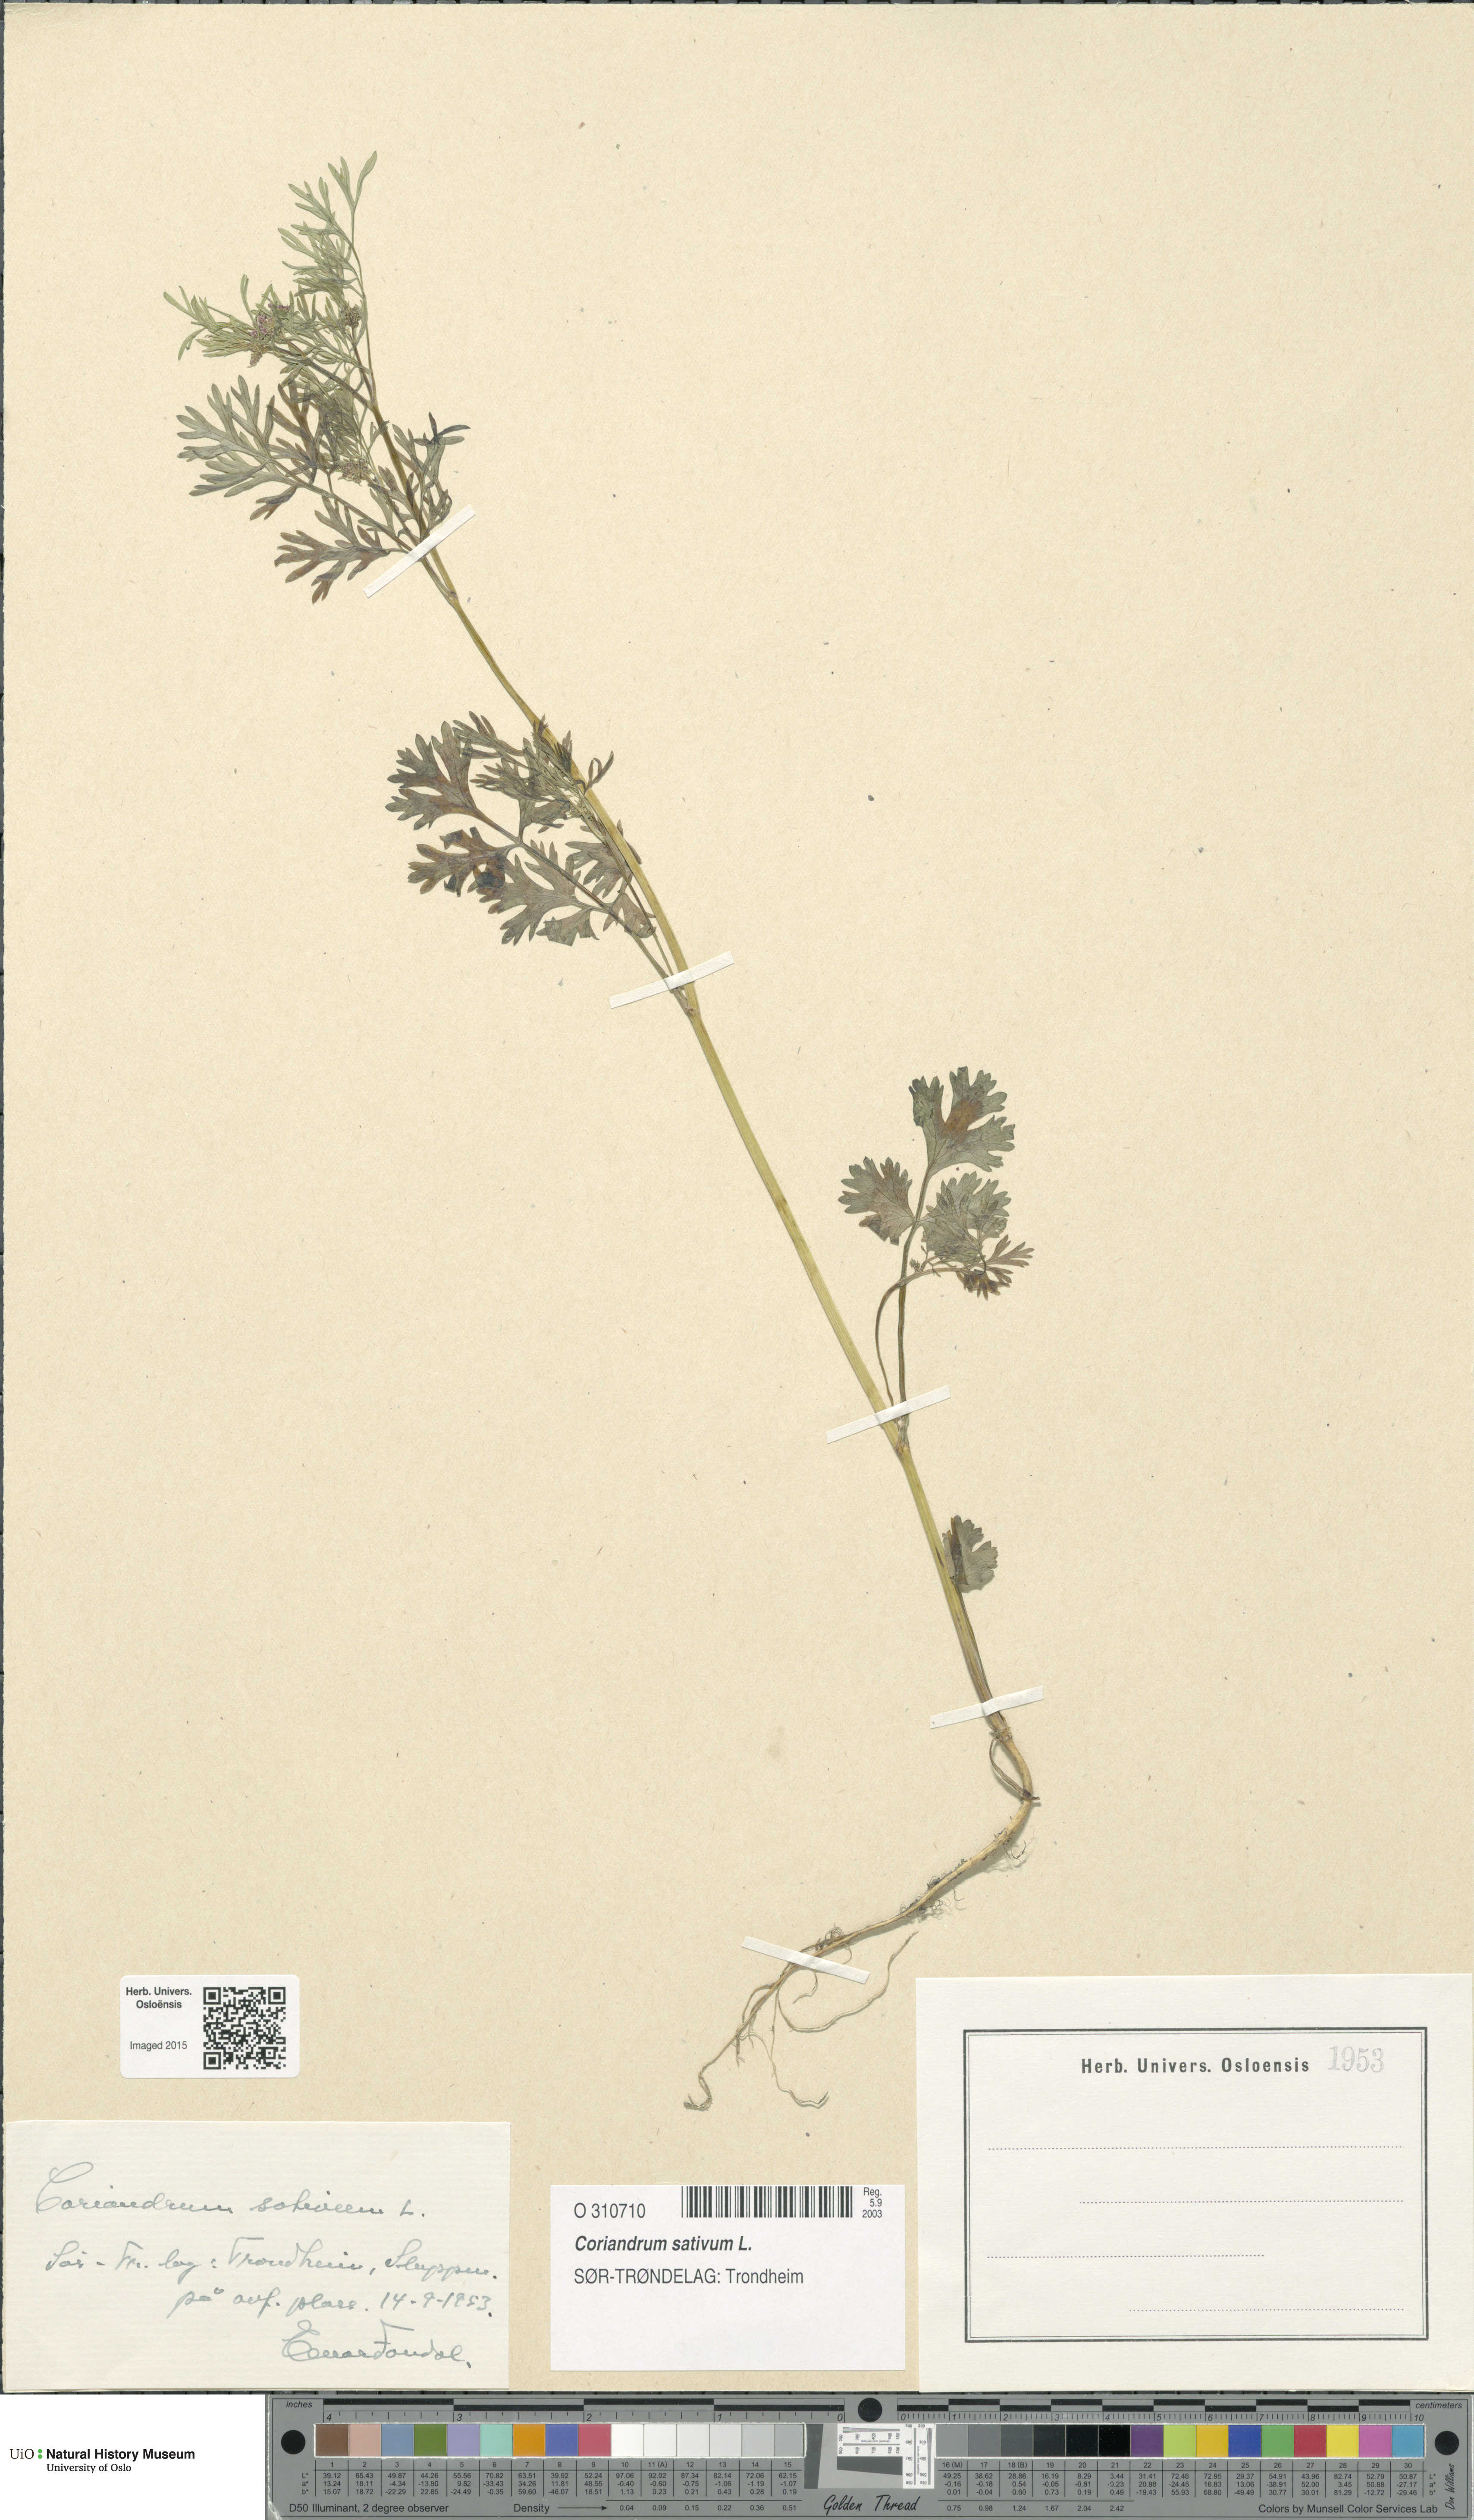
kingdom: Plantae
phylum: Tracheophyta
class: Magnoliopsida
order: Apiales
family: Apiaceae
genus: Coriandrum
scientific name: Coriandrum sativum
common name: Coriander
